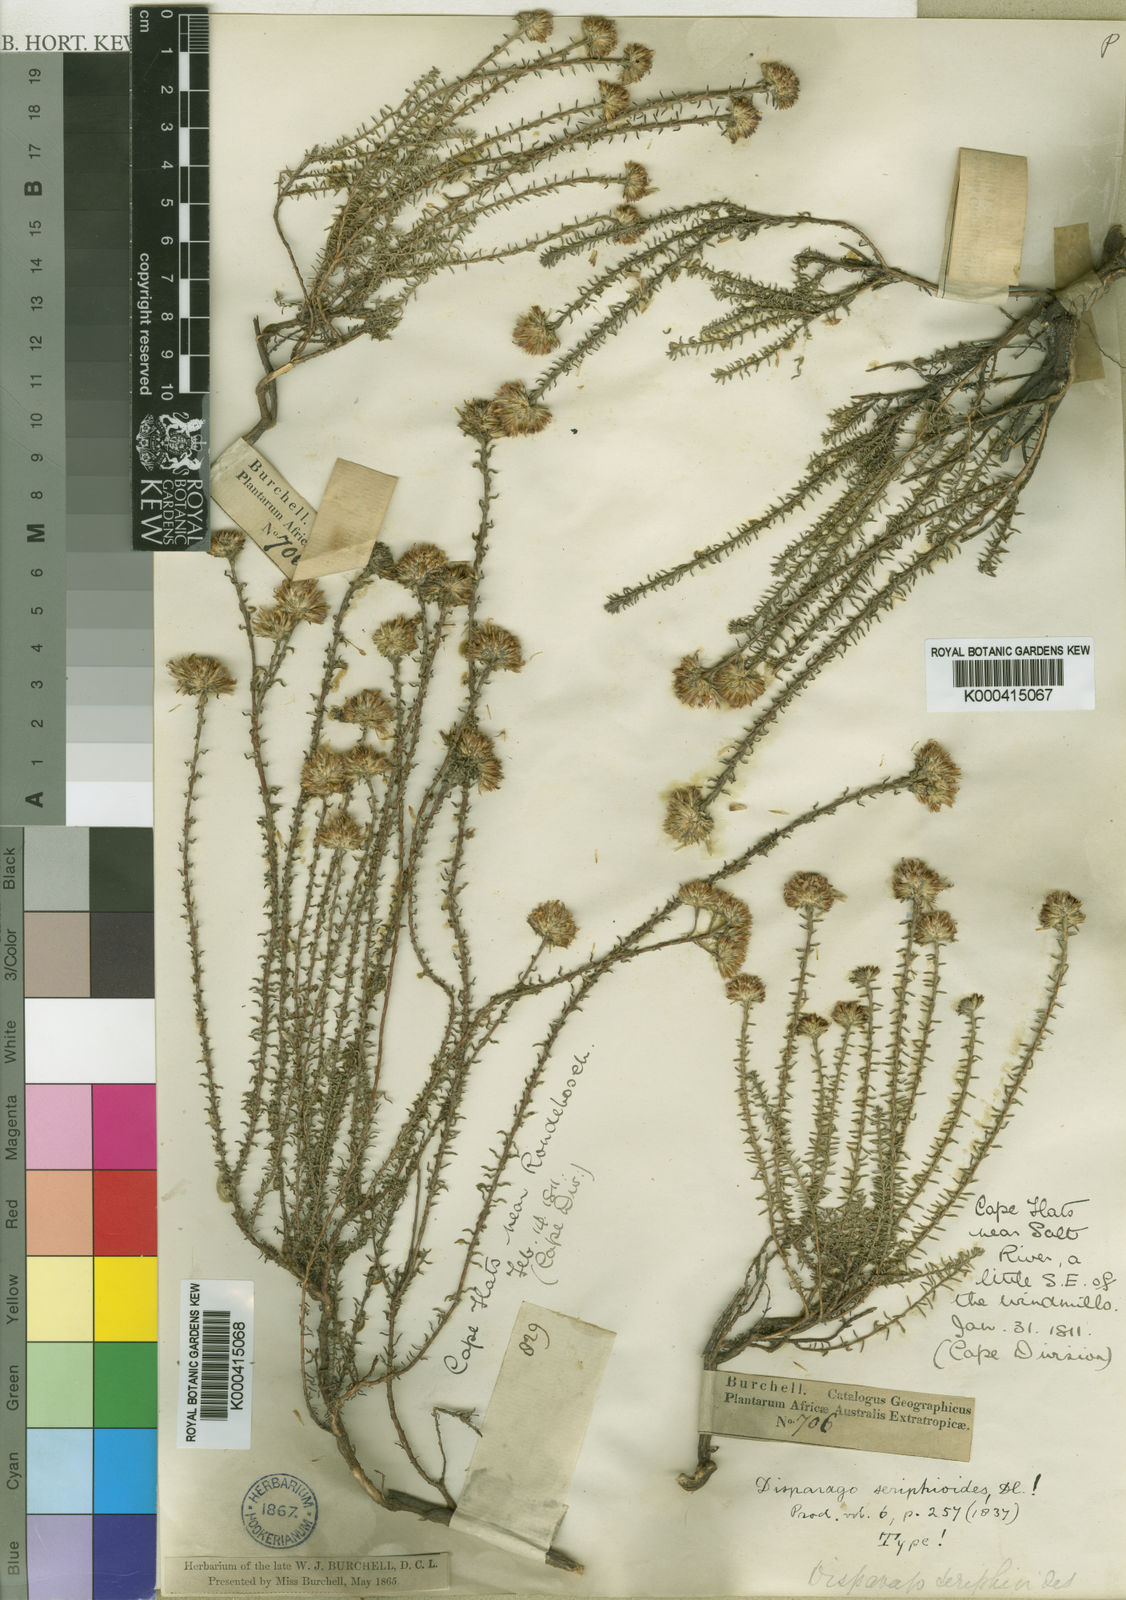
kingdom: Plantae
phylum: Tracheophyta
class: Magnoliopsida
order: Asterales
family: Asteraceae
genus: Disparago
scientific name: Disparago ericoides
